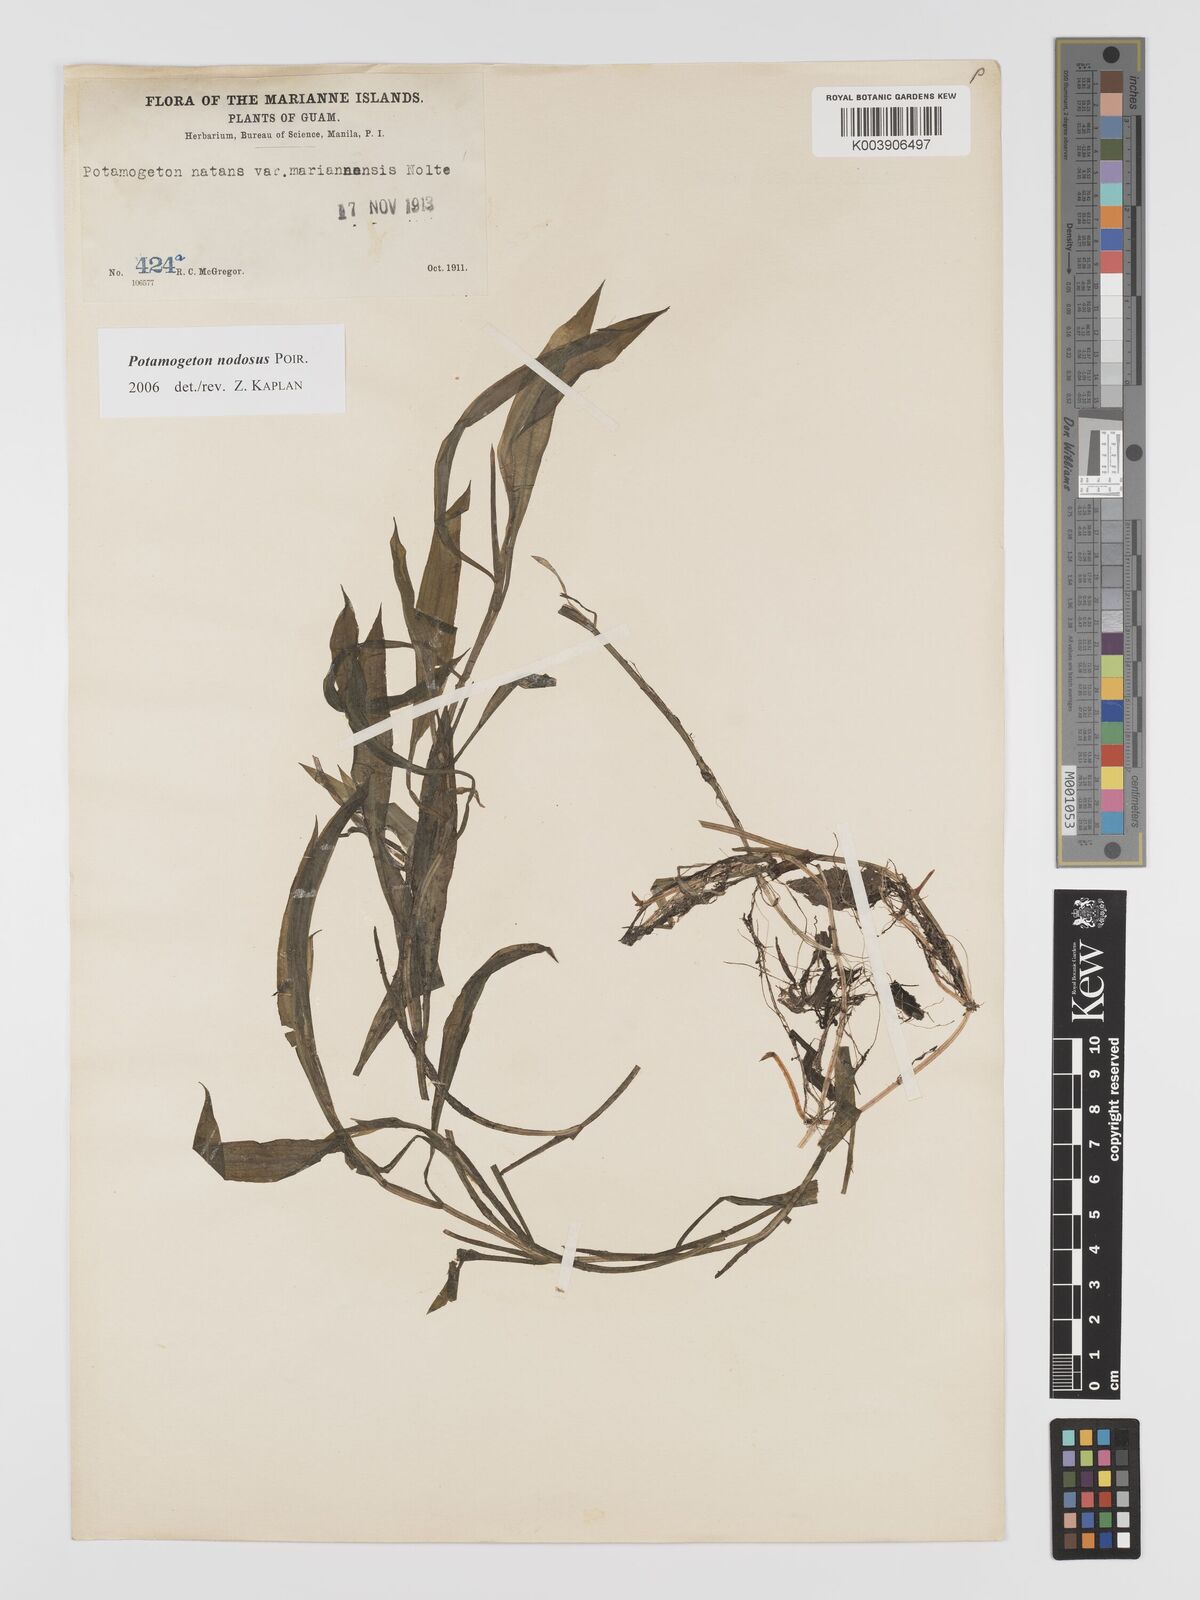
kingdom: Plantae
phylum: Tracheophyta
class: Liliopsida
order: Alismatales
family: Potamogetonaceae
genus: Potamogeton
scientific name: Potamogeton nodosus
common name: Loddon pondweed
